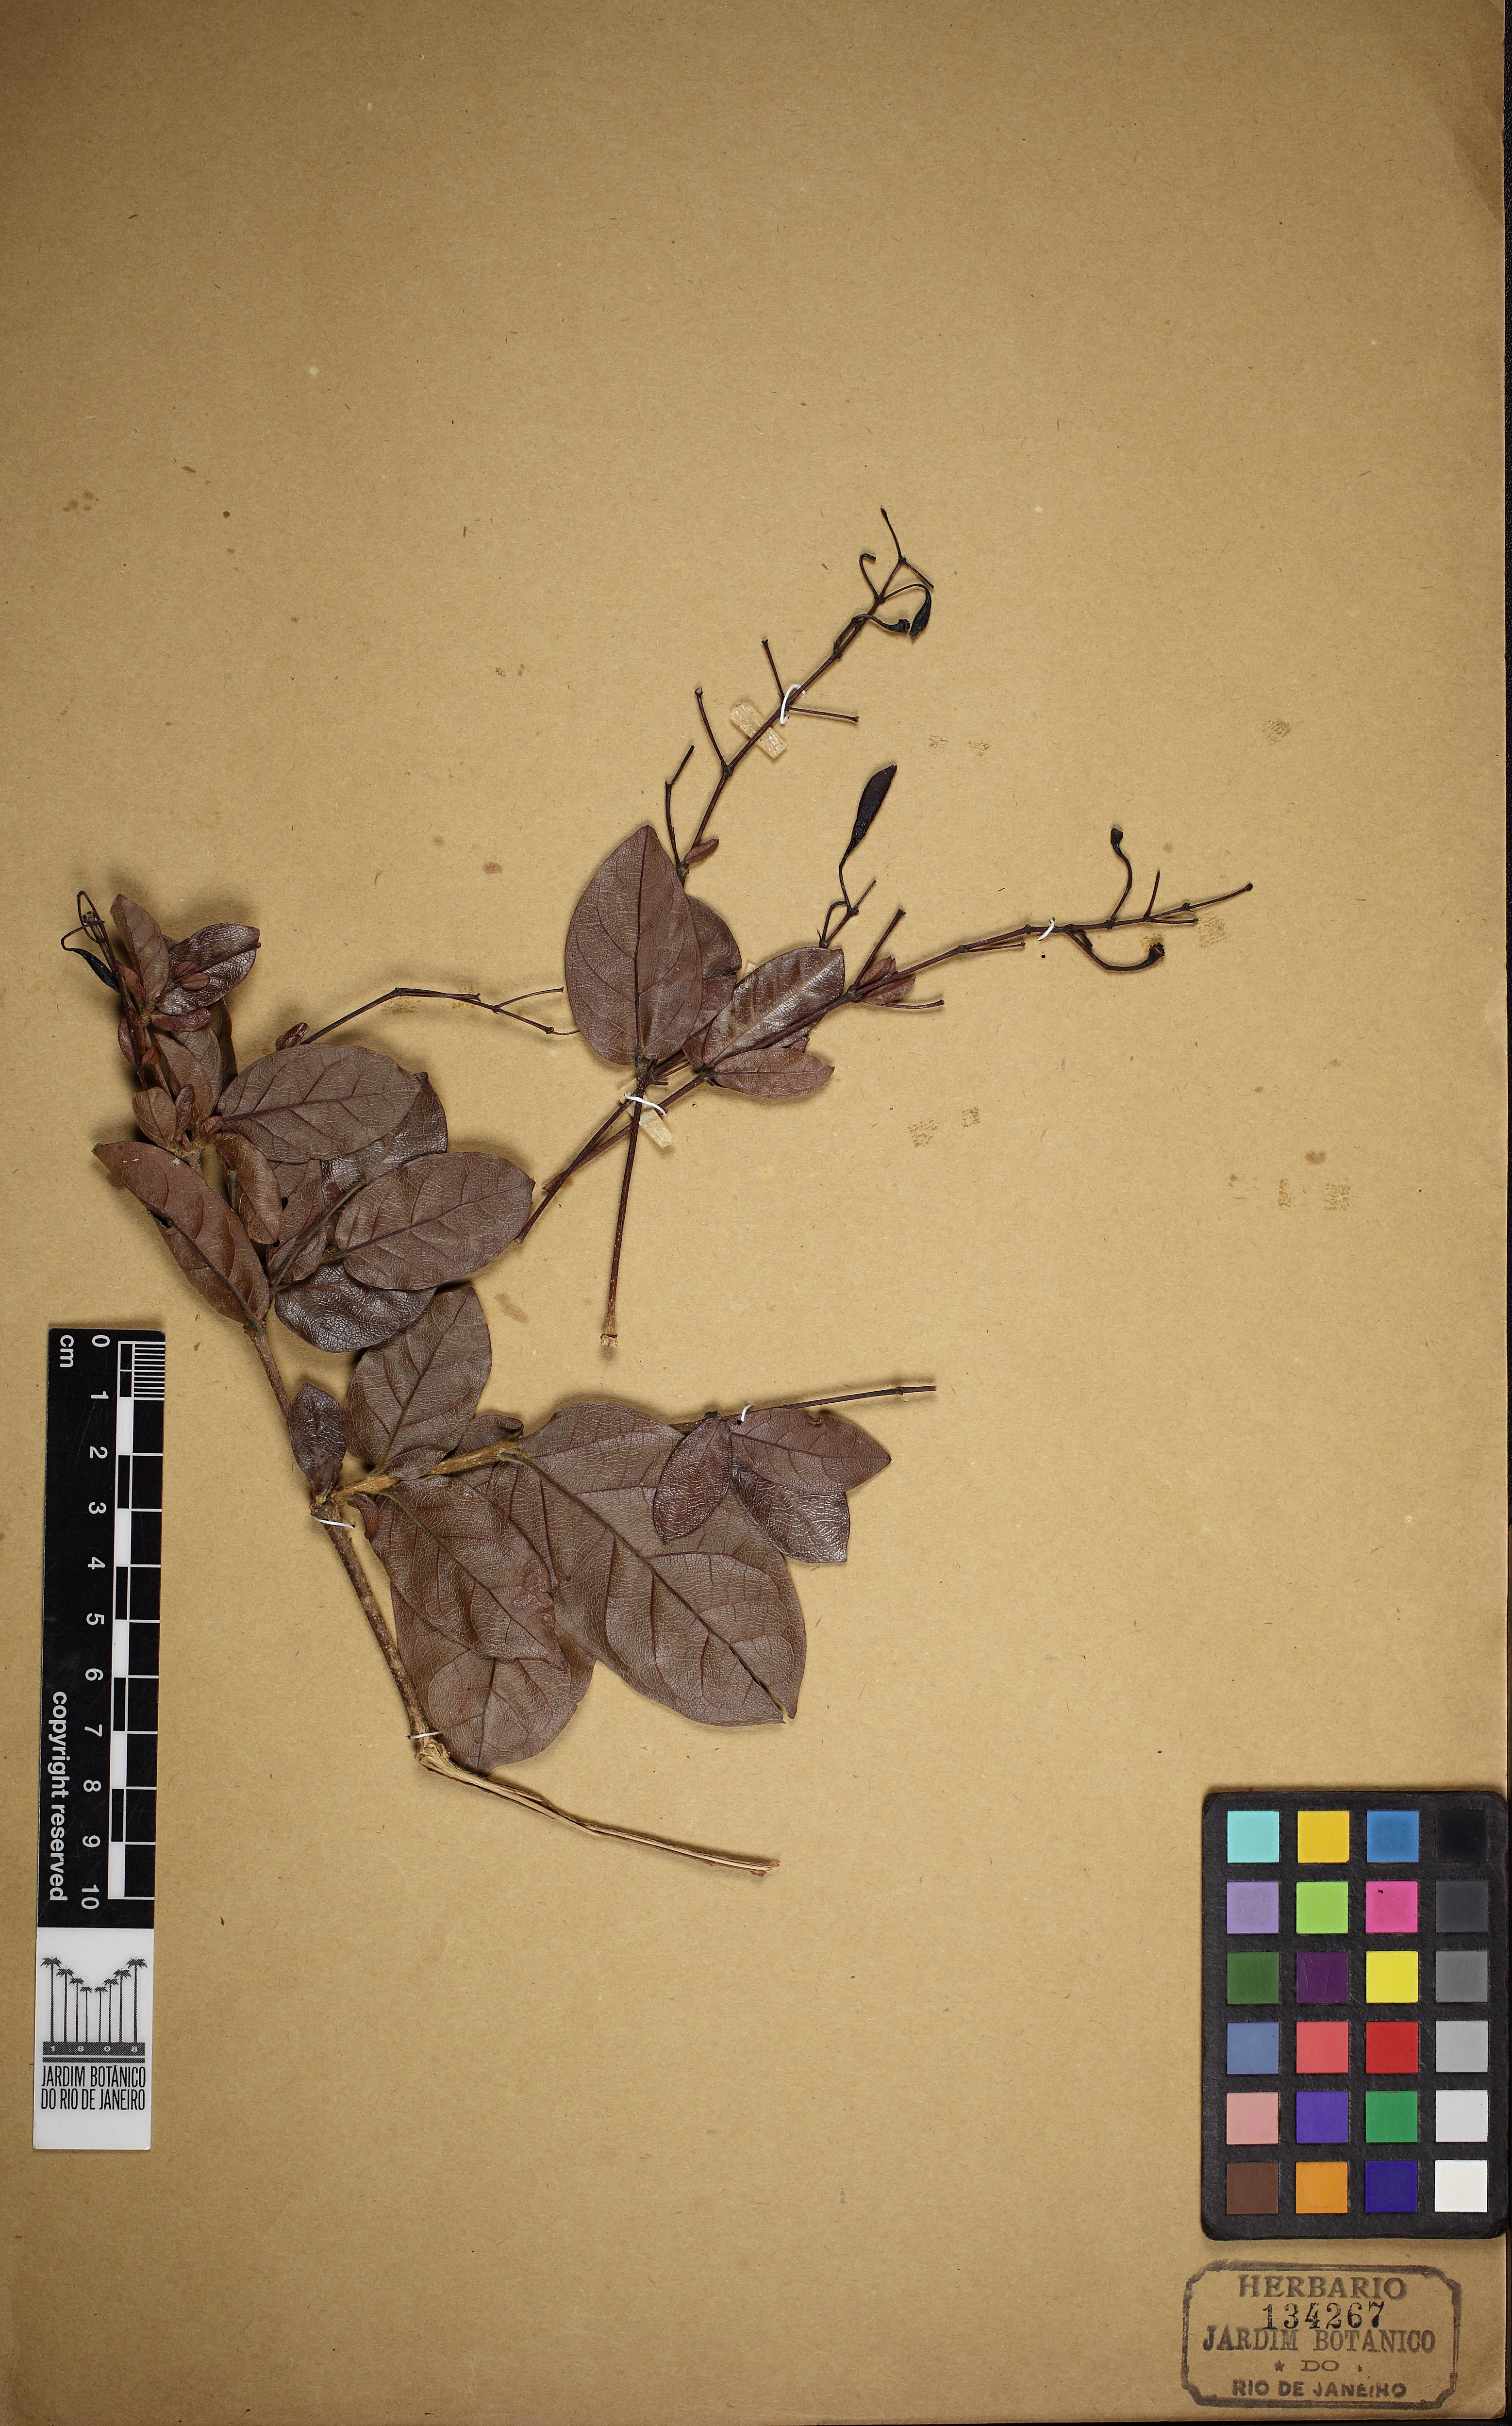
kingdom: Plantae
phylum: Tracheophyta
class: Magnoliopsida
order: Lamiales
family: Bignoniaceae
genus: Fridericia
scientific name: Fridericia craterophora
